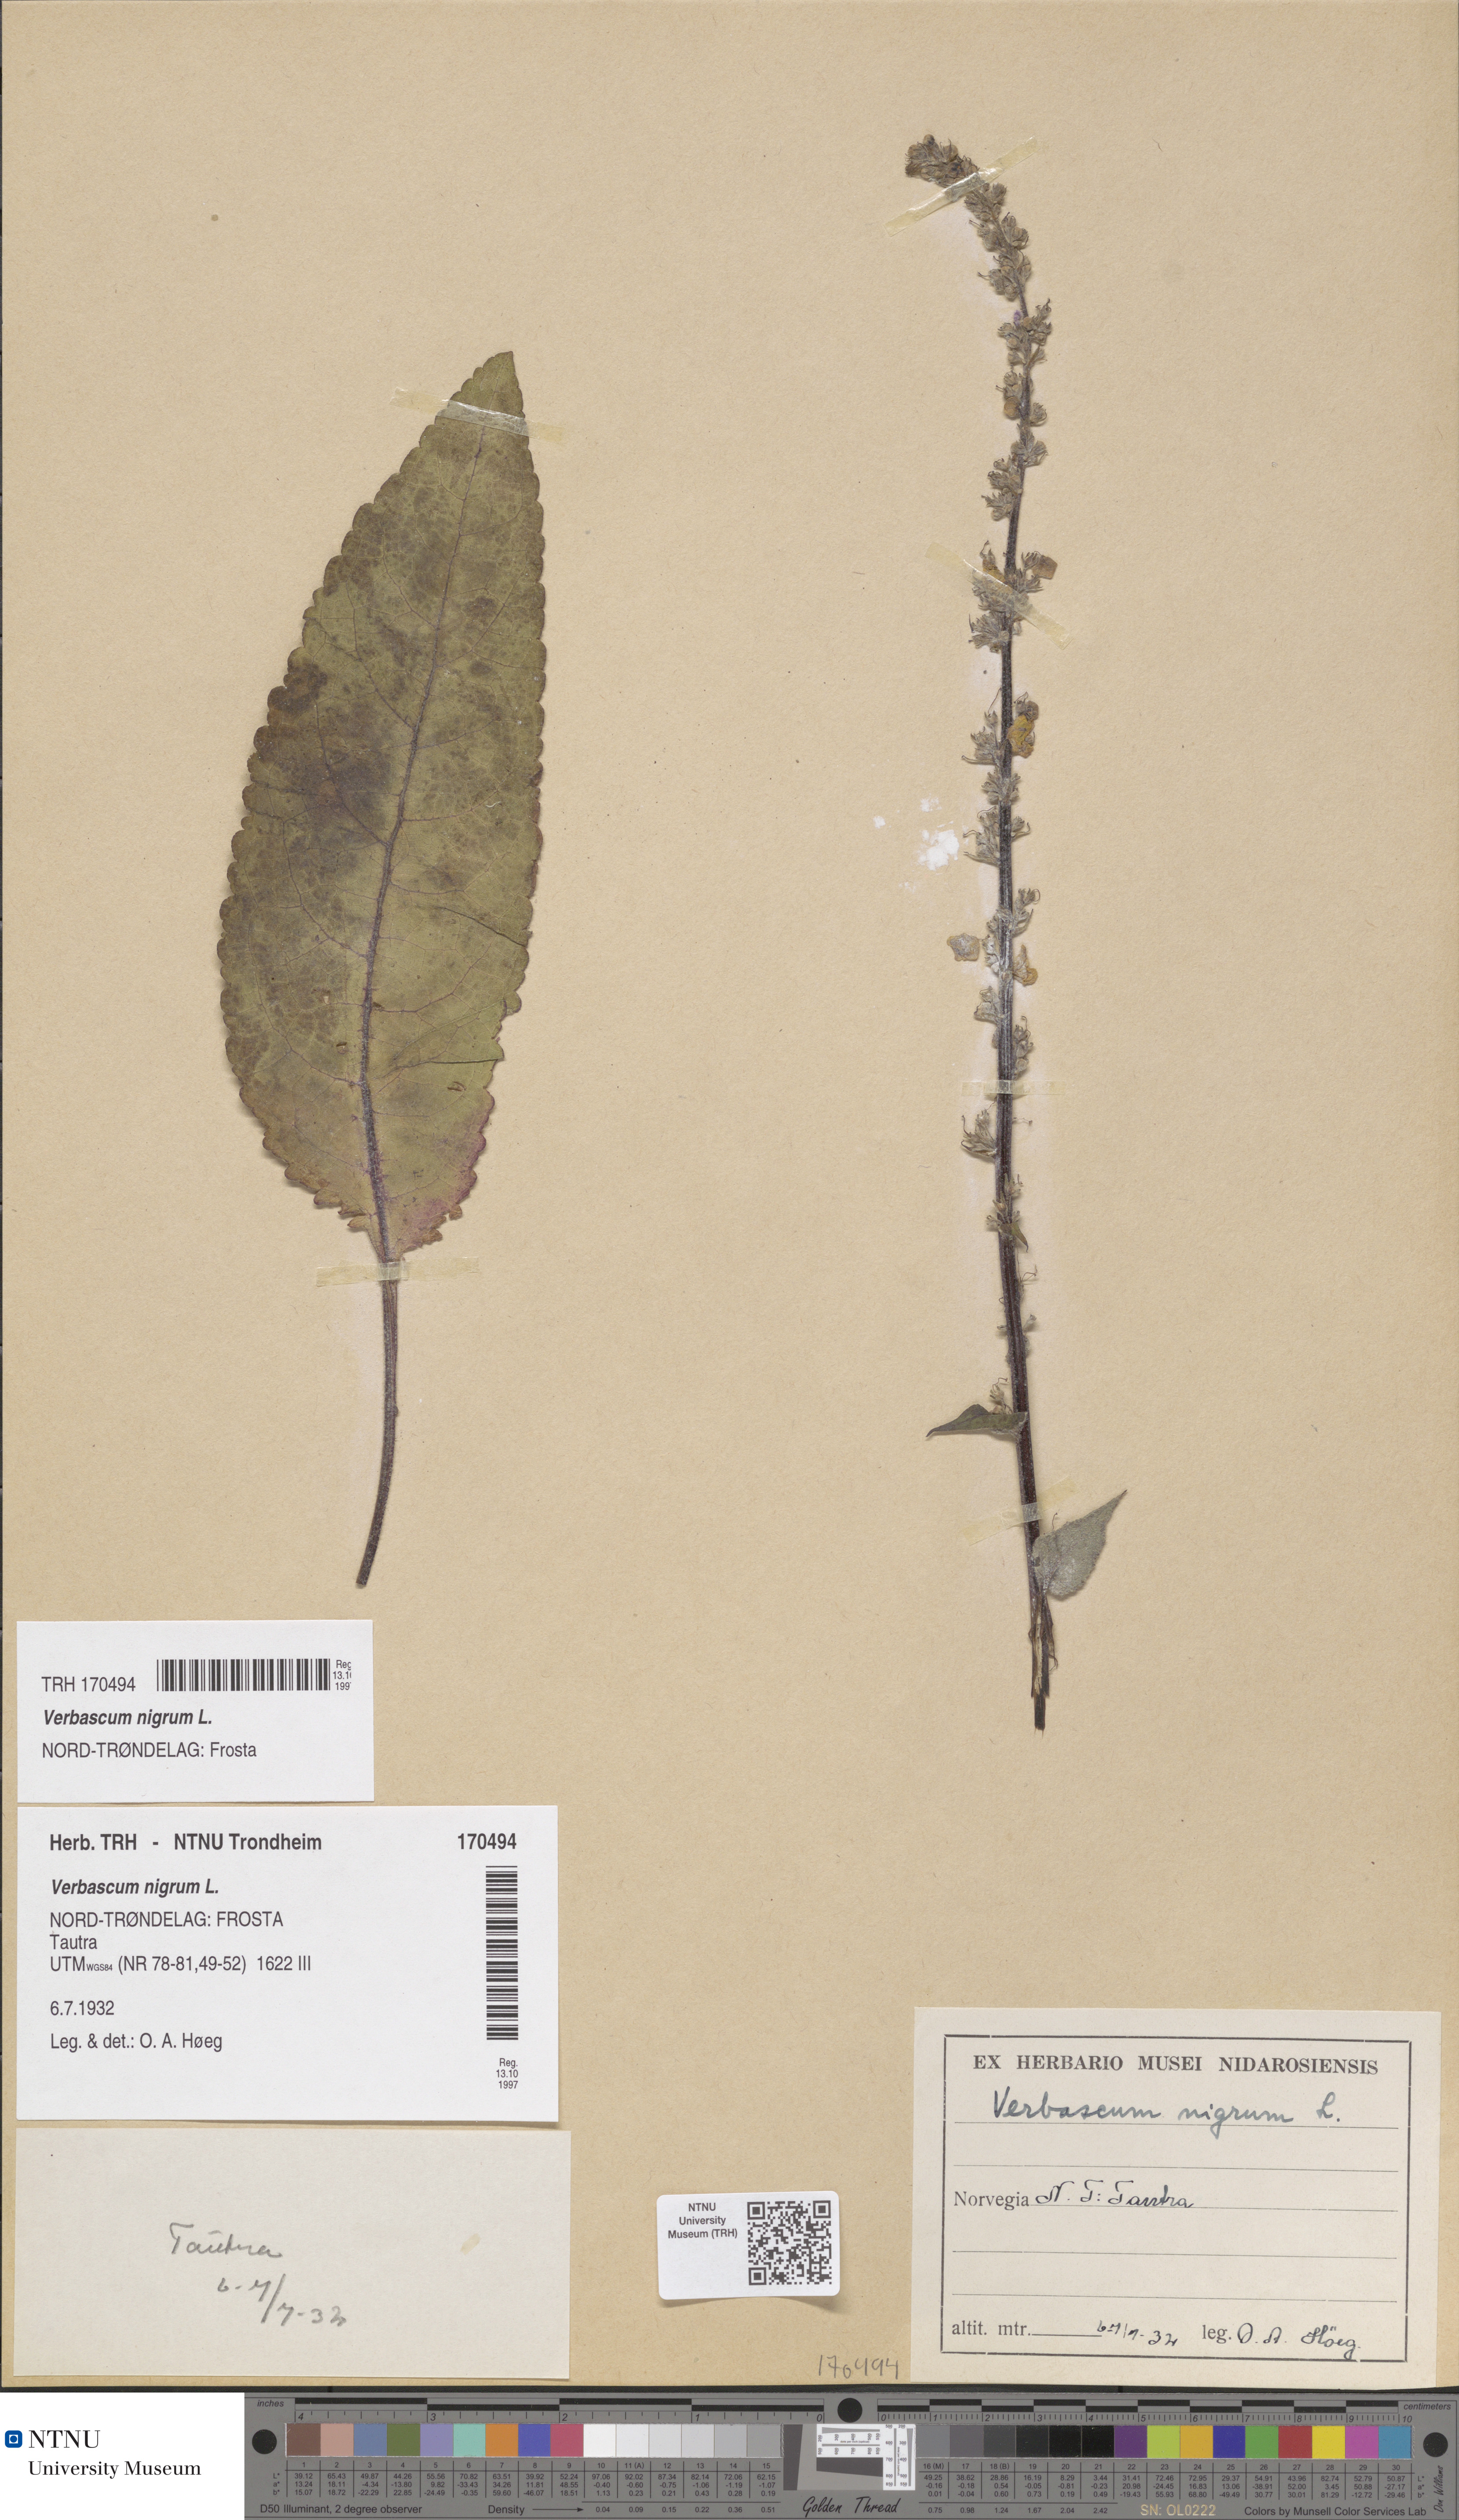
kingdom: Plantae
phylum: Tracheophyta
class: Magnoliopsida
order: Lamiales
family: Scrophulariaceae
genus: Verbascum
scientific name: Verbascum nigrum
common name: Dark mullein
